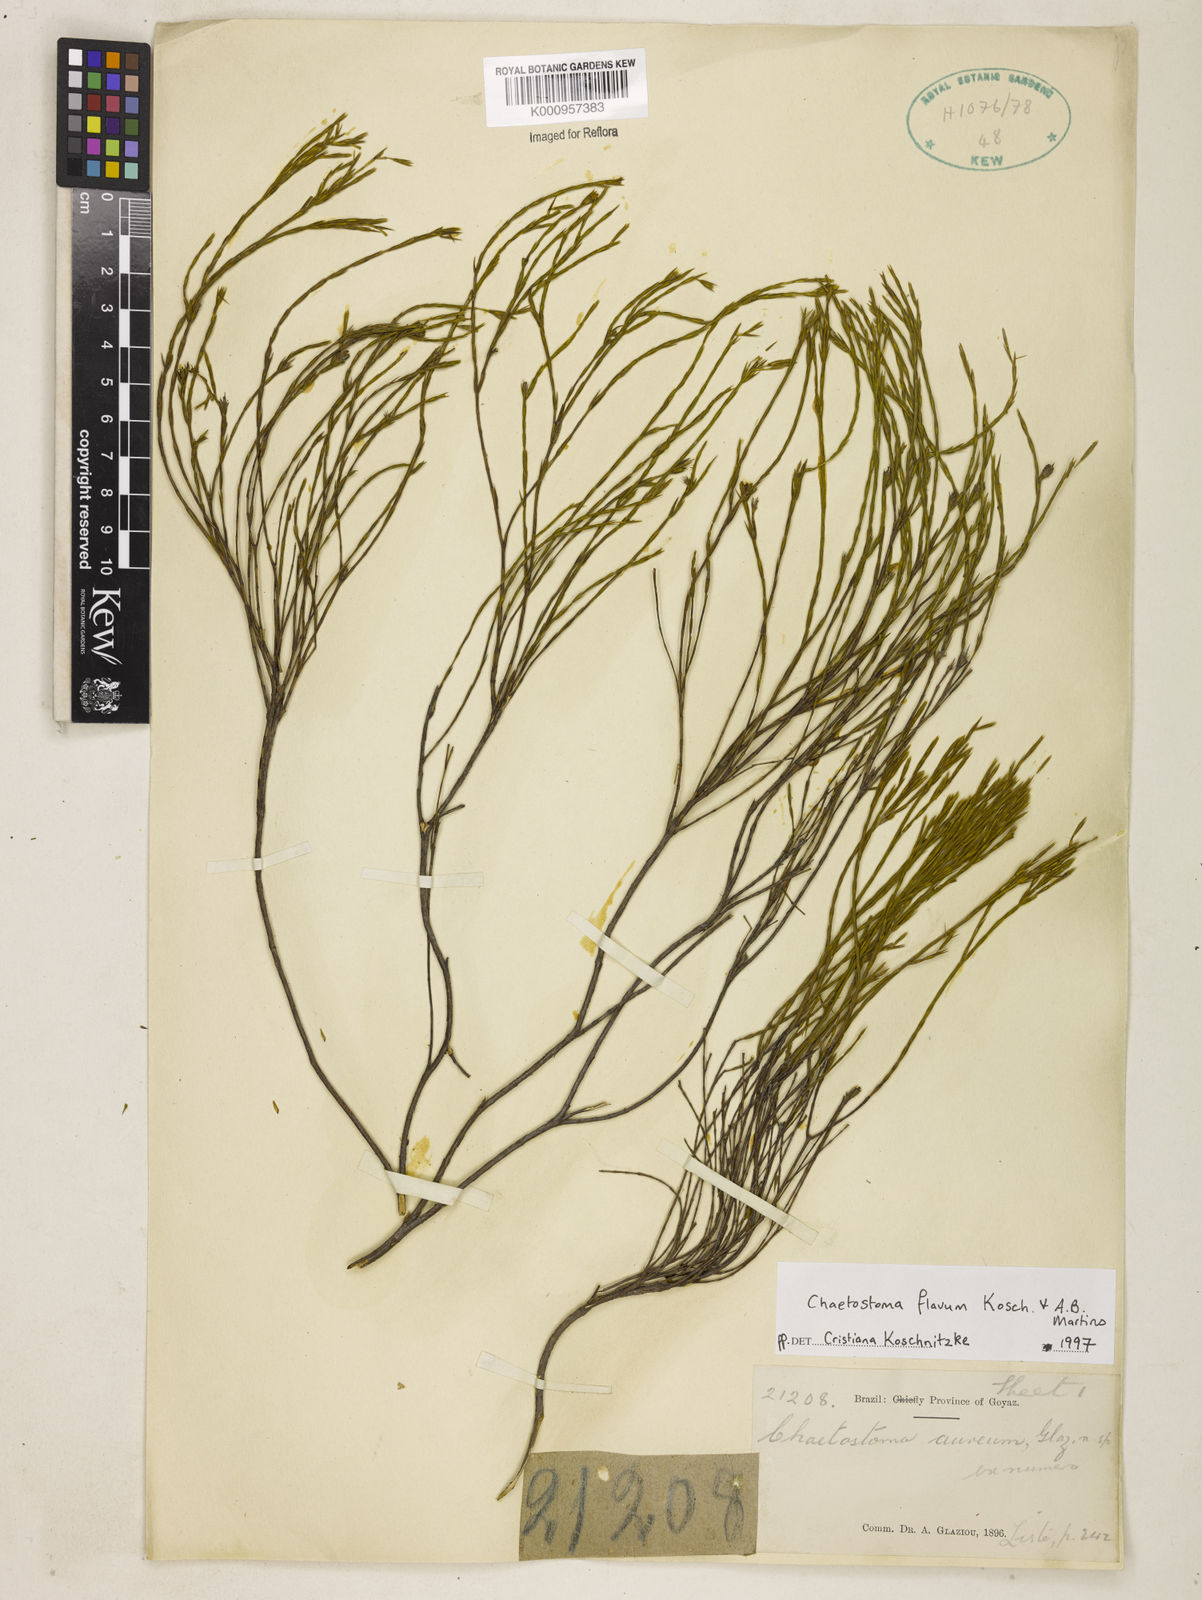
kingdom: Plantae
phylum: Tracheophyta
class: Magnoliopsida
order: Myrtales
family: Melastomataceae
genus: Microlicia
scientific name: Microlicia flavipetala
